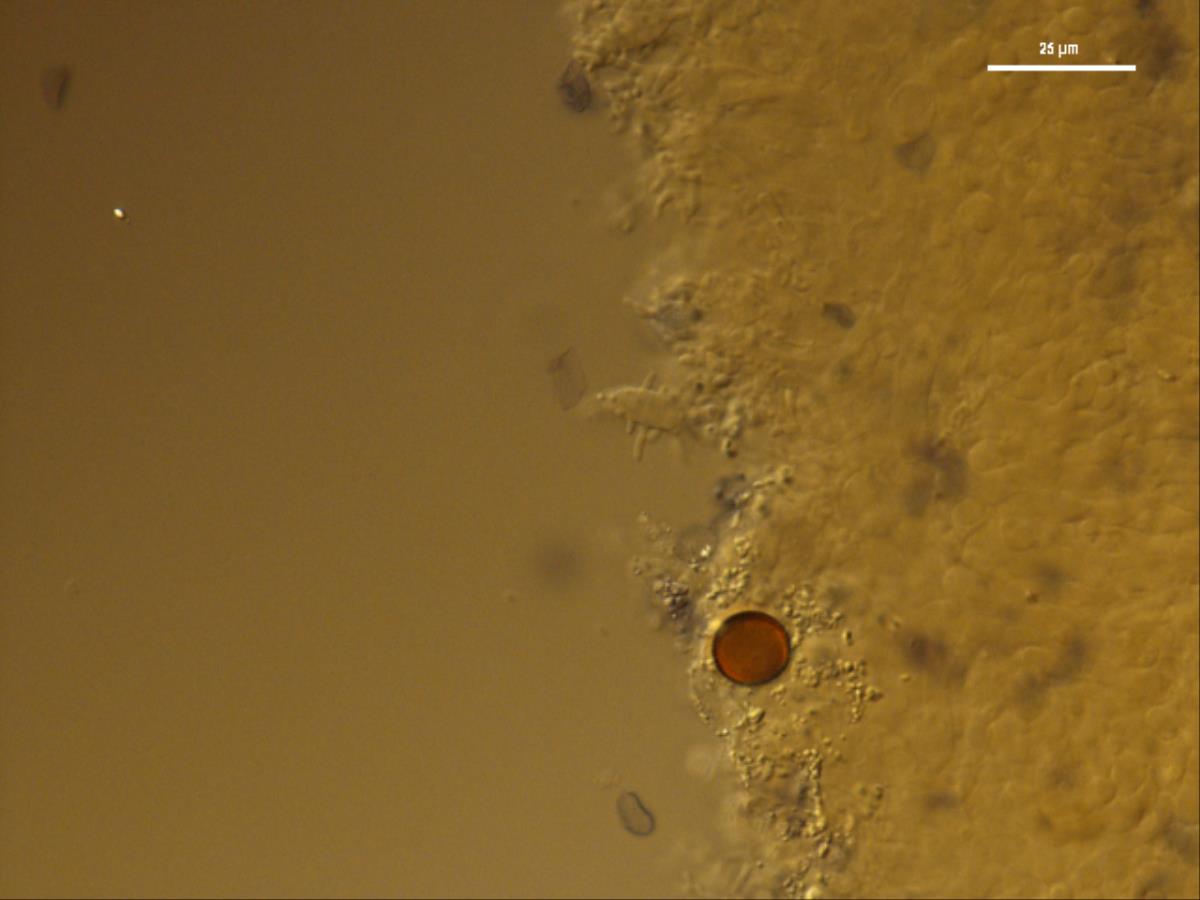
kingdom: Fungi
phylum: Basidiomycota
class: Agaricomycetes
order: Agaricales
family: Mycenaceae
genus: Mycena
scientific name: Mycena galericulata
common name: Bonnet mycena
